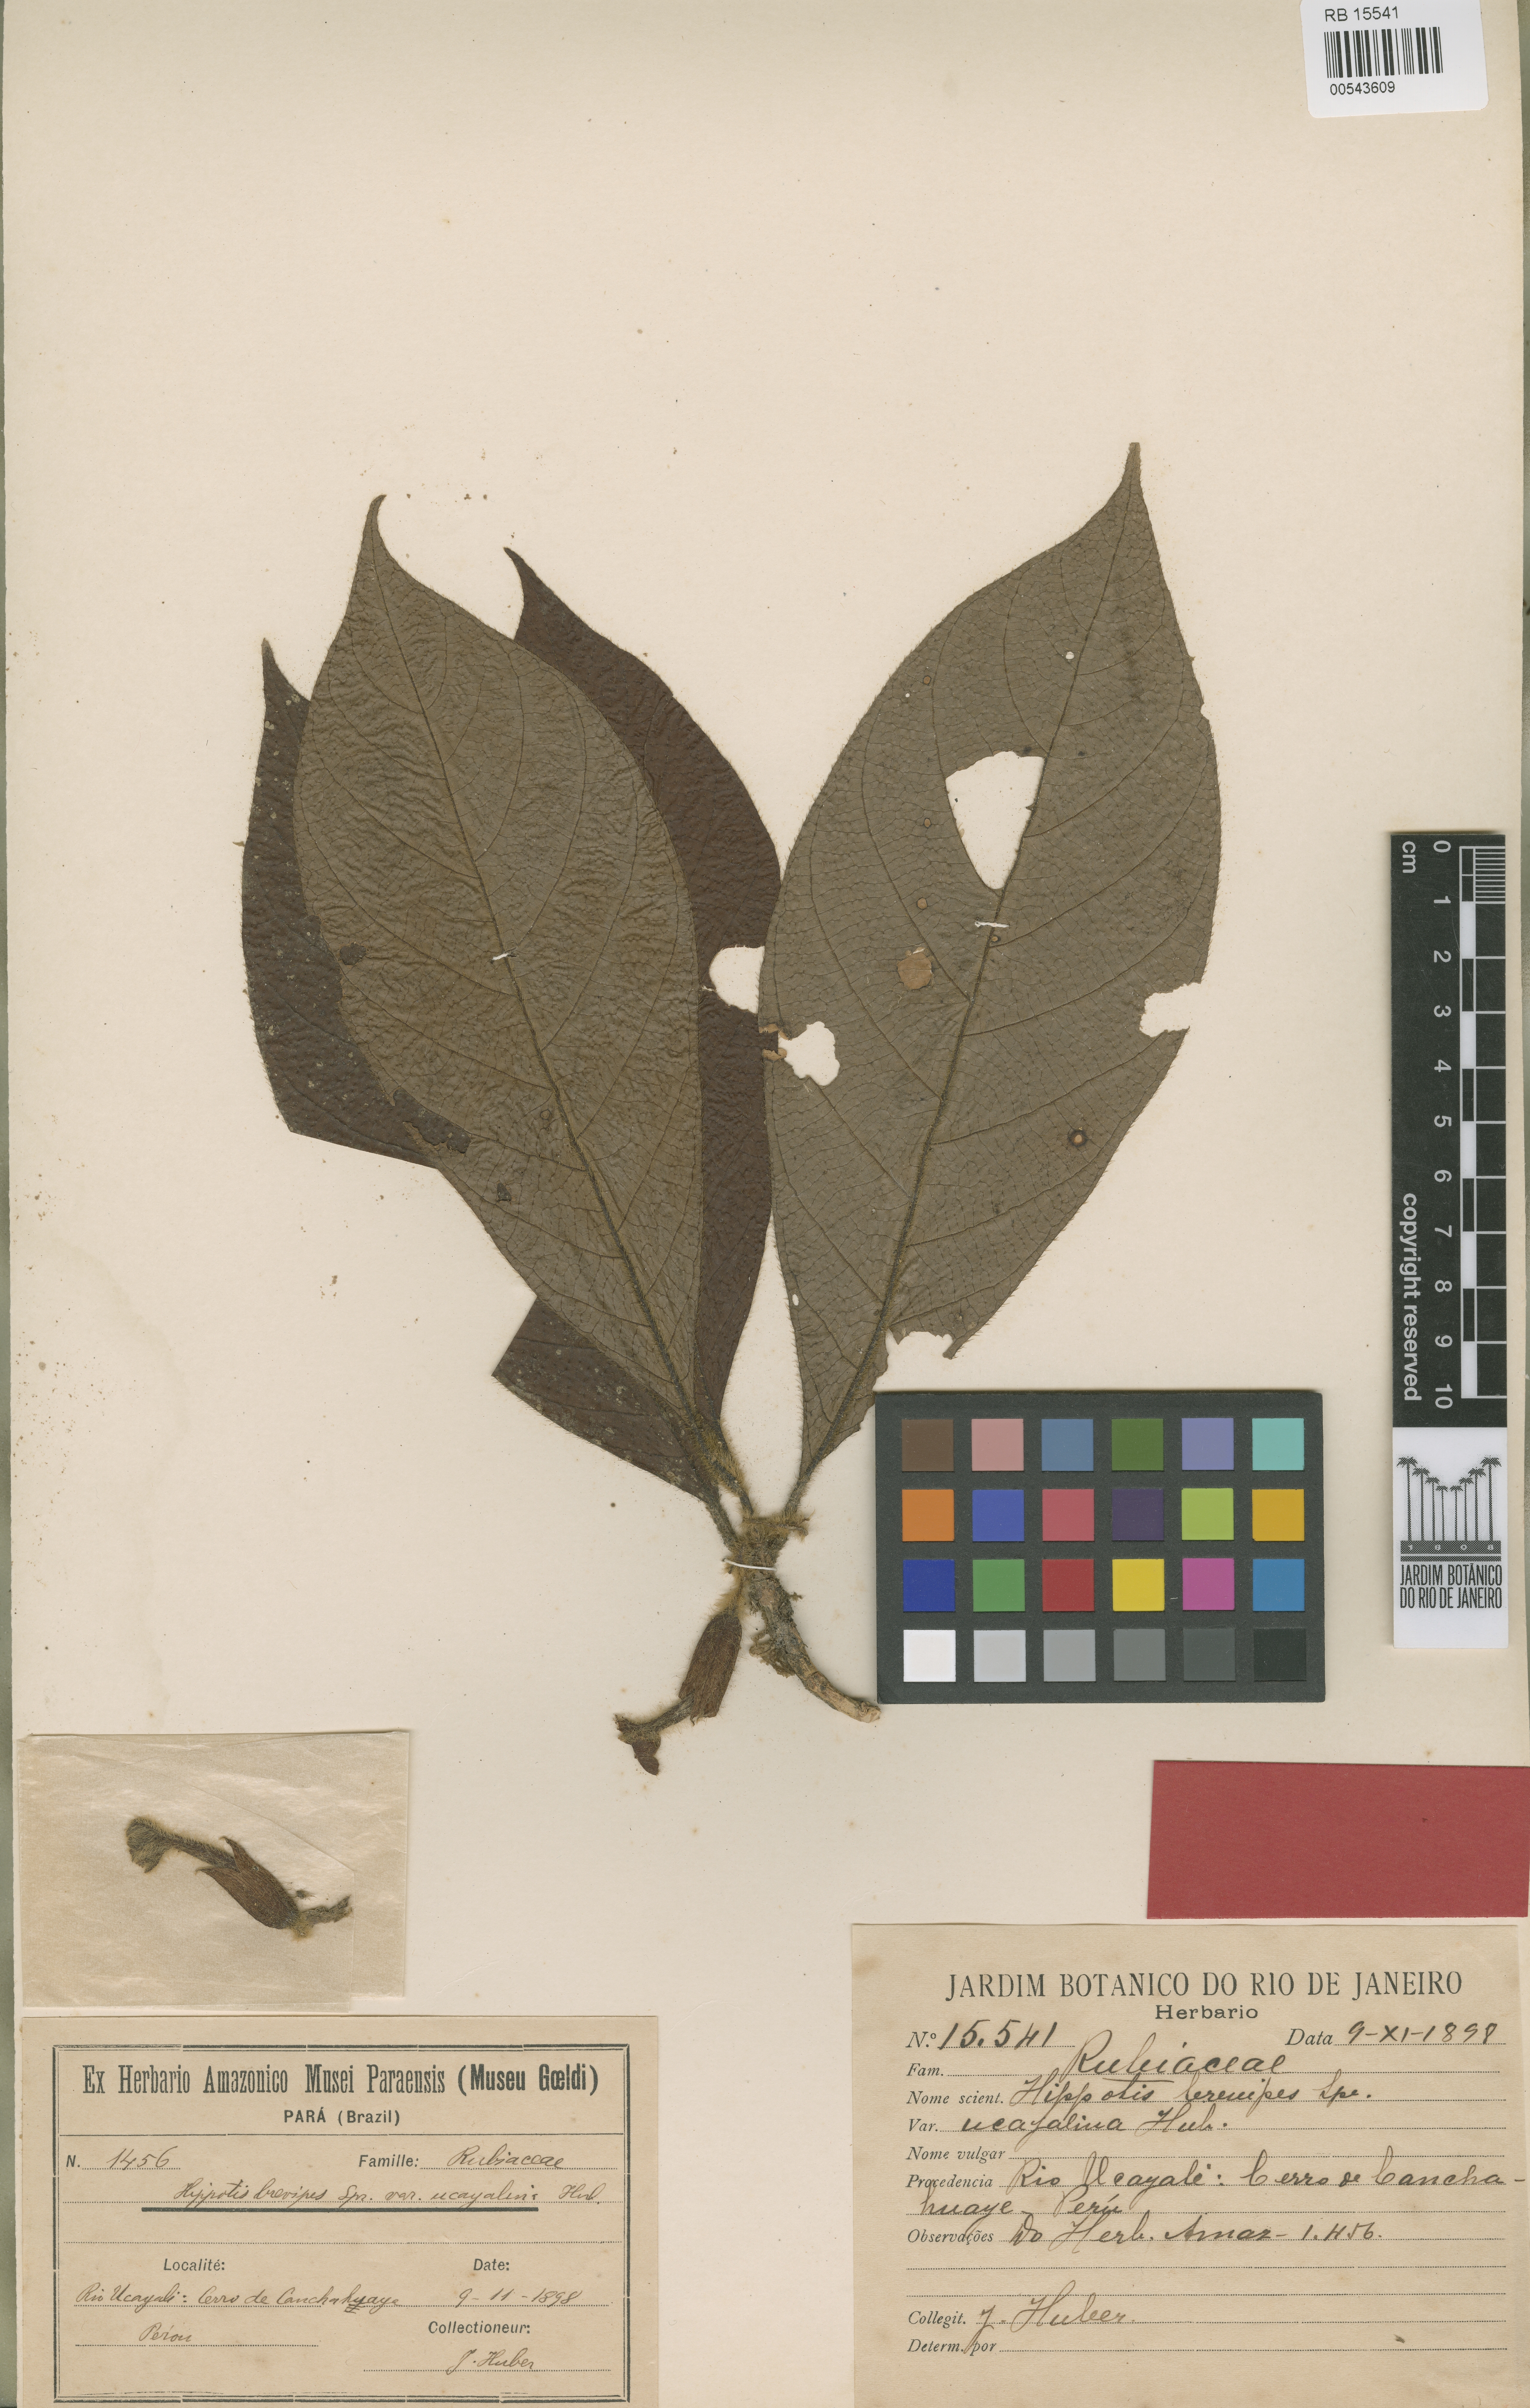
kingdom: Plantae
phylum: Tracheophyta
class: Magnoliopsida
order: Gentianales
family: Rubiaceae
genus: Hippotis
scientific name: Hippotis brevipes
